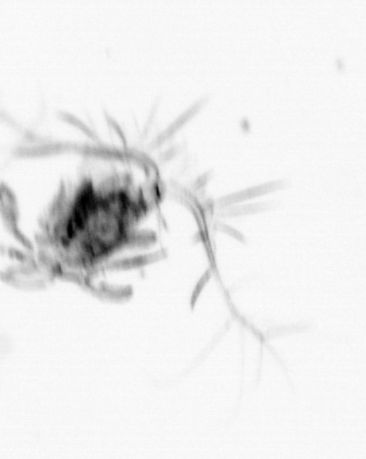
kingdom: Animalia
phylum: Arthropoda
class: Copepoda
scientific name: Copepoda
